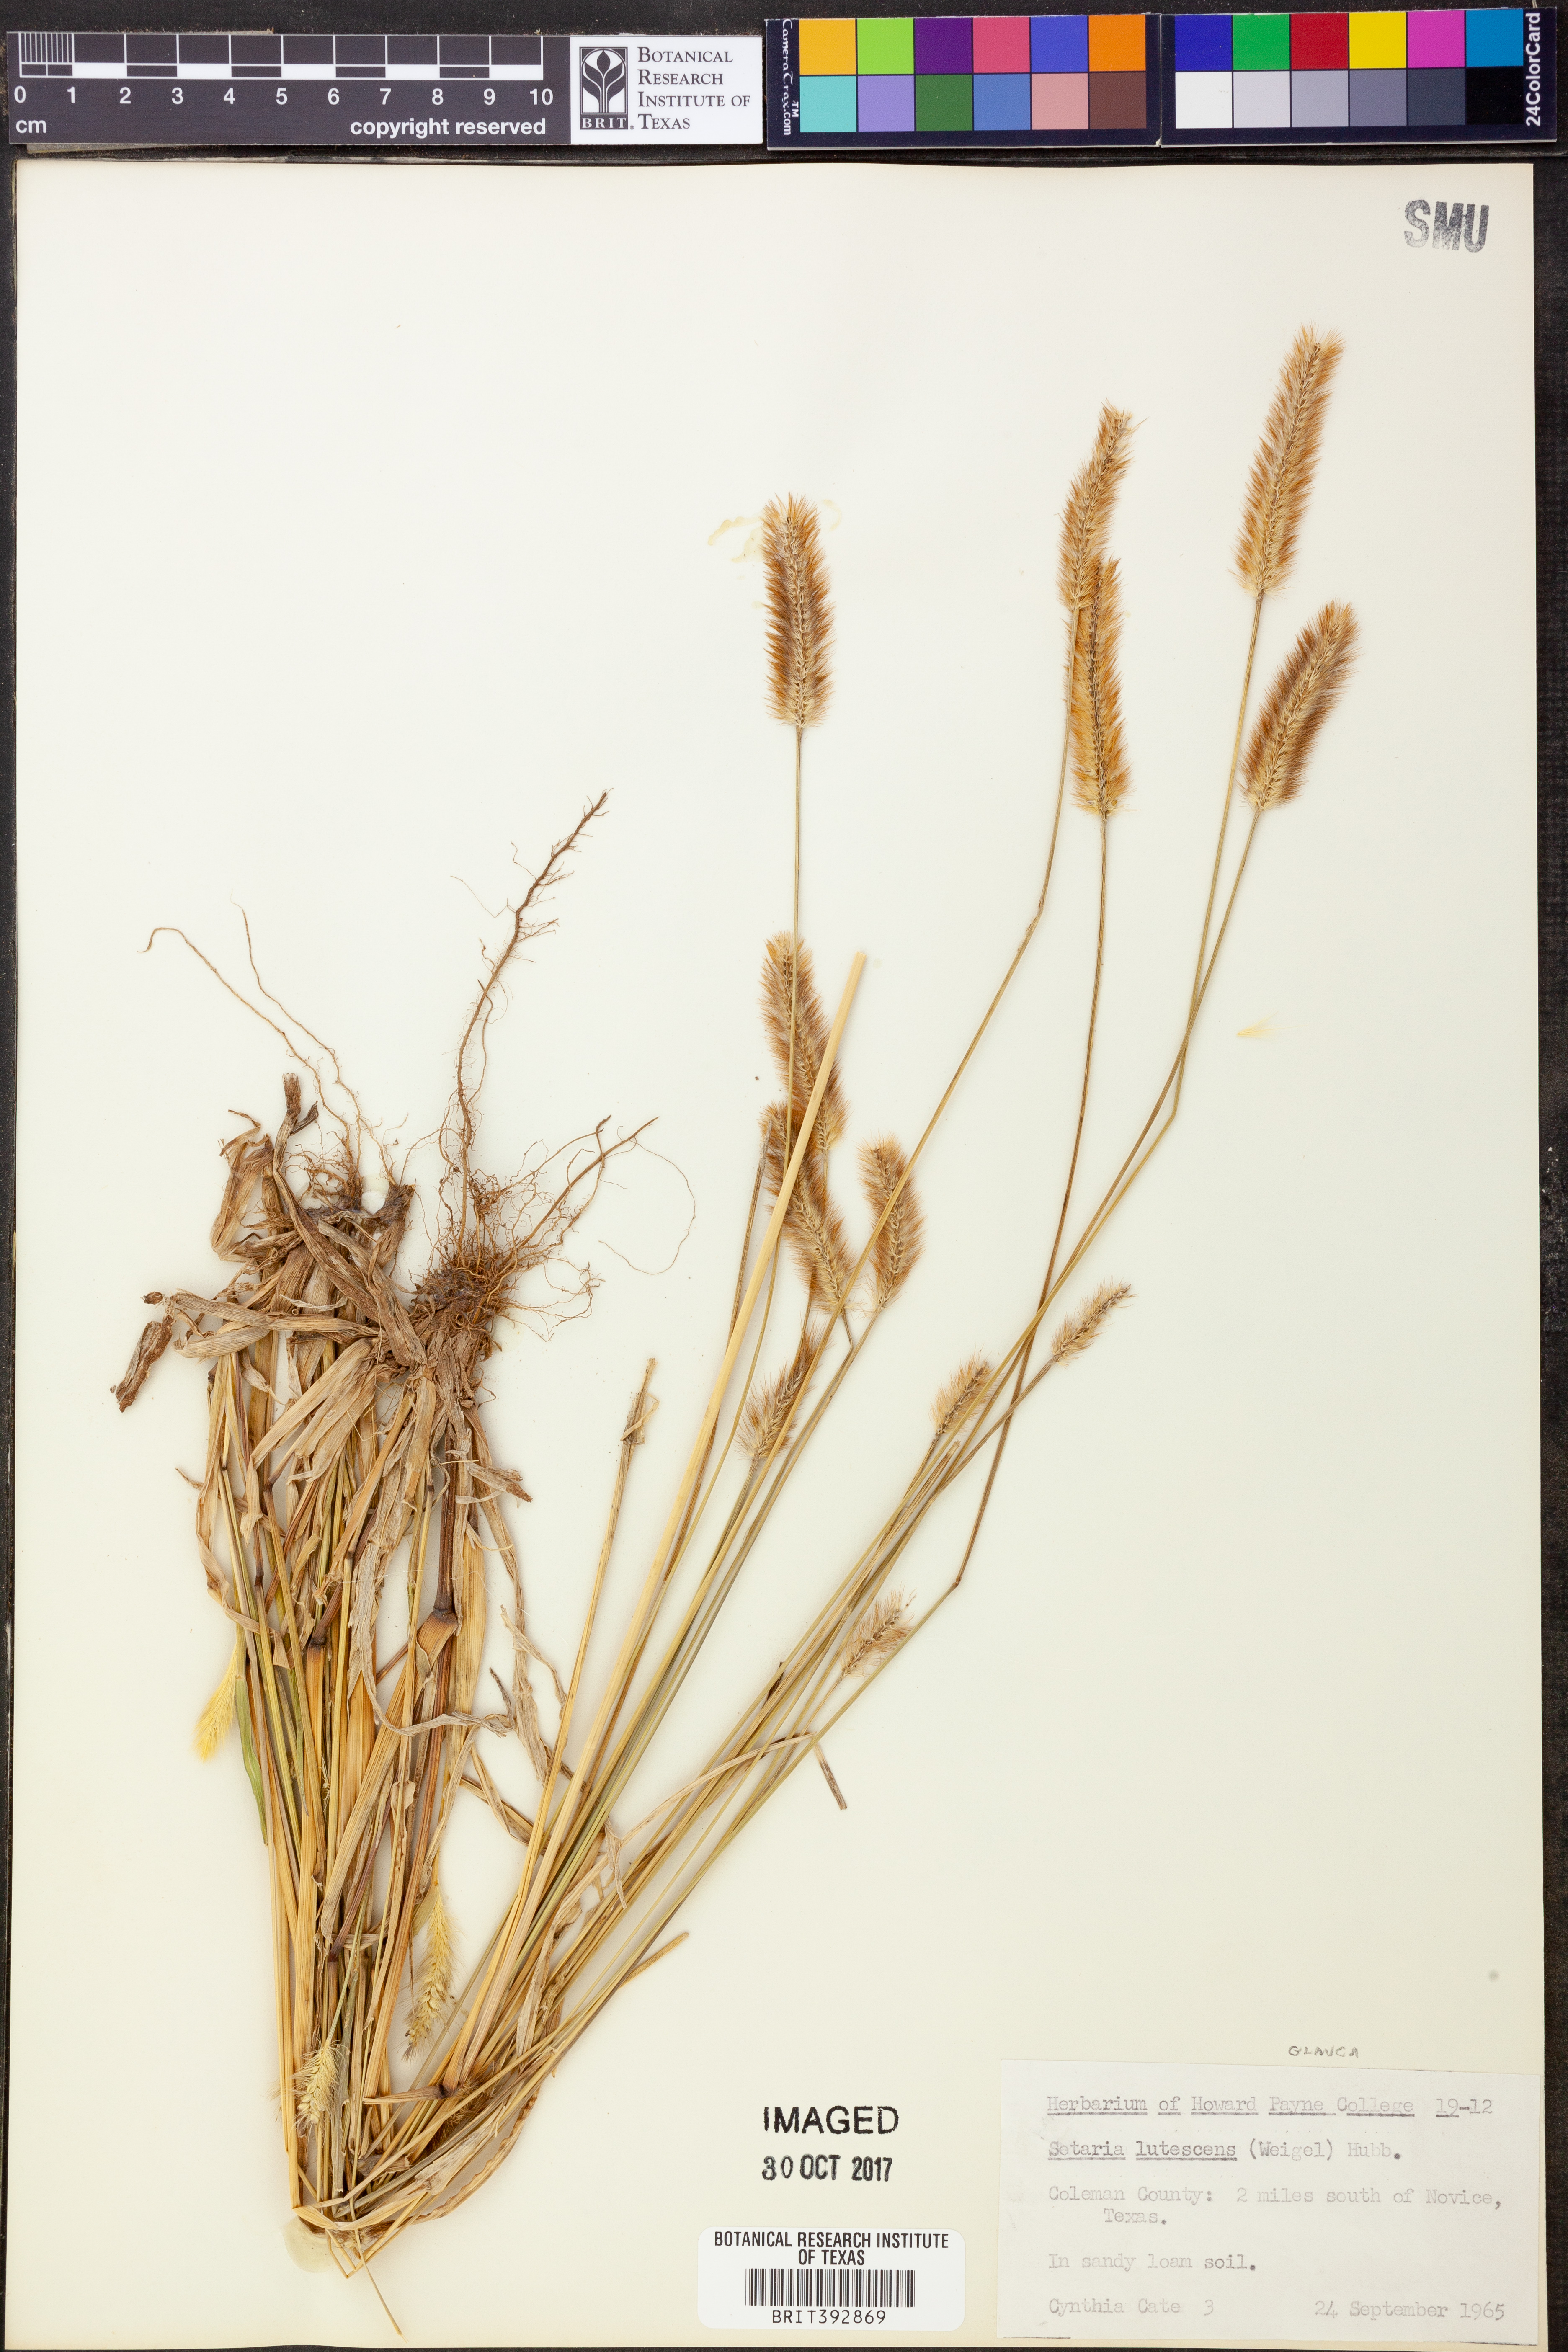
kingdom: Plantae
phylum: Tracheophyta
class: Liliopsida
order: Poales
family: Poaceae
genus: Cenchrus
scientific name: Cenchrus americanus
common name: Pearl millet
